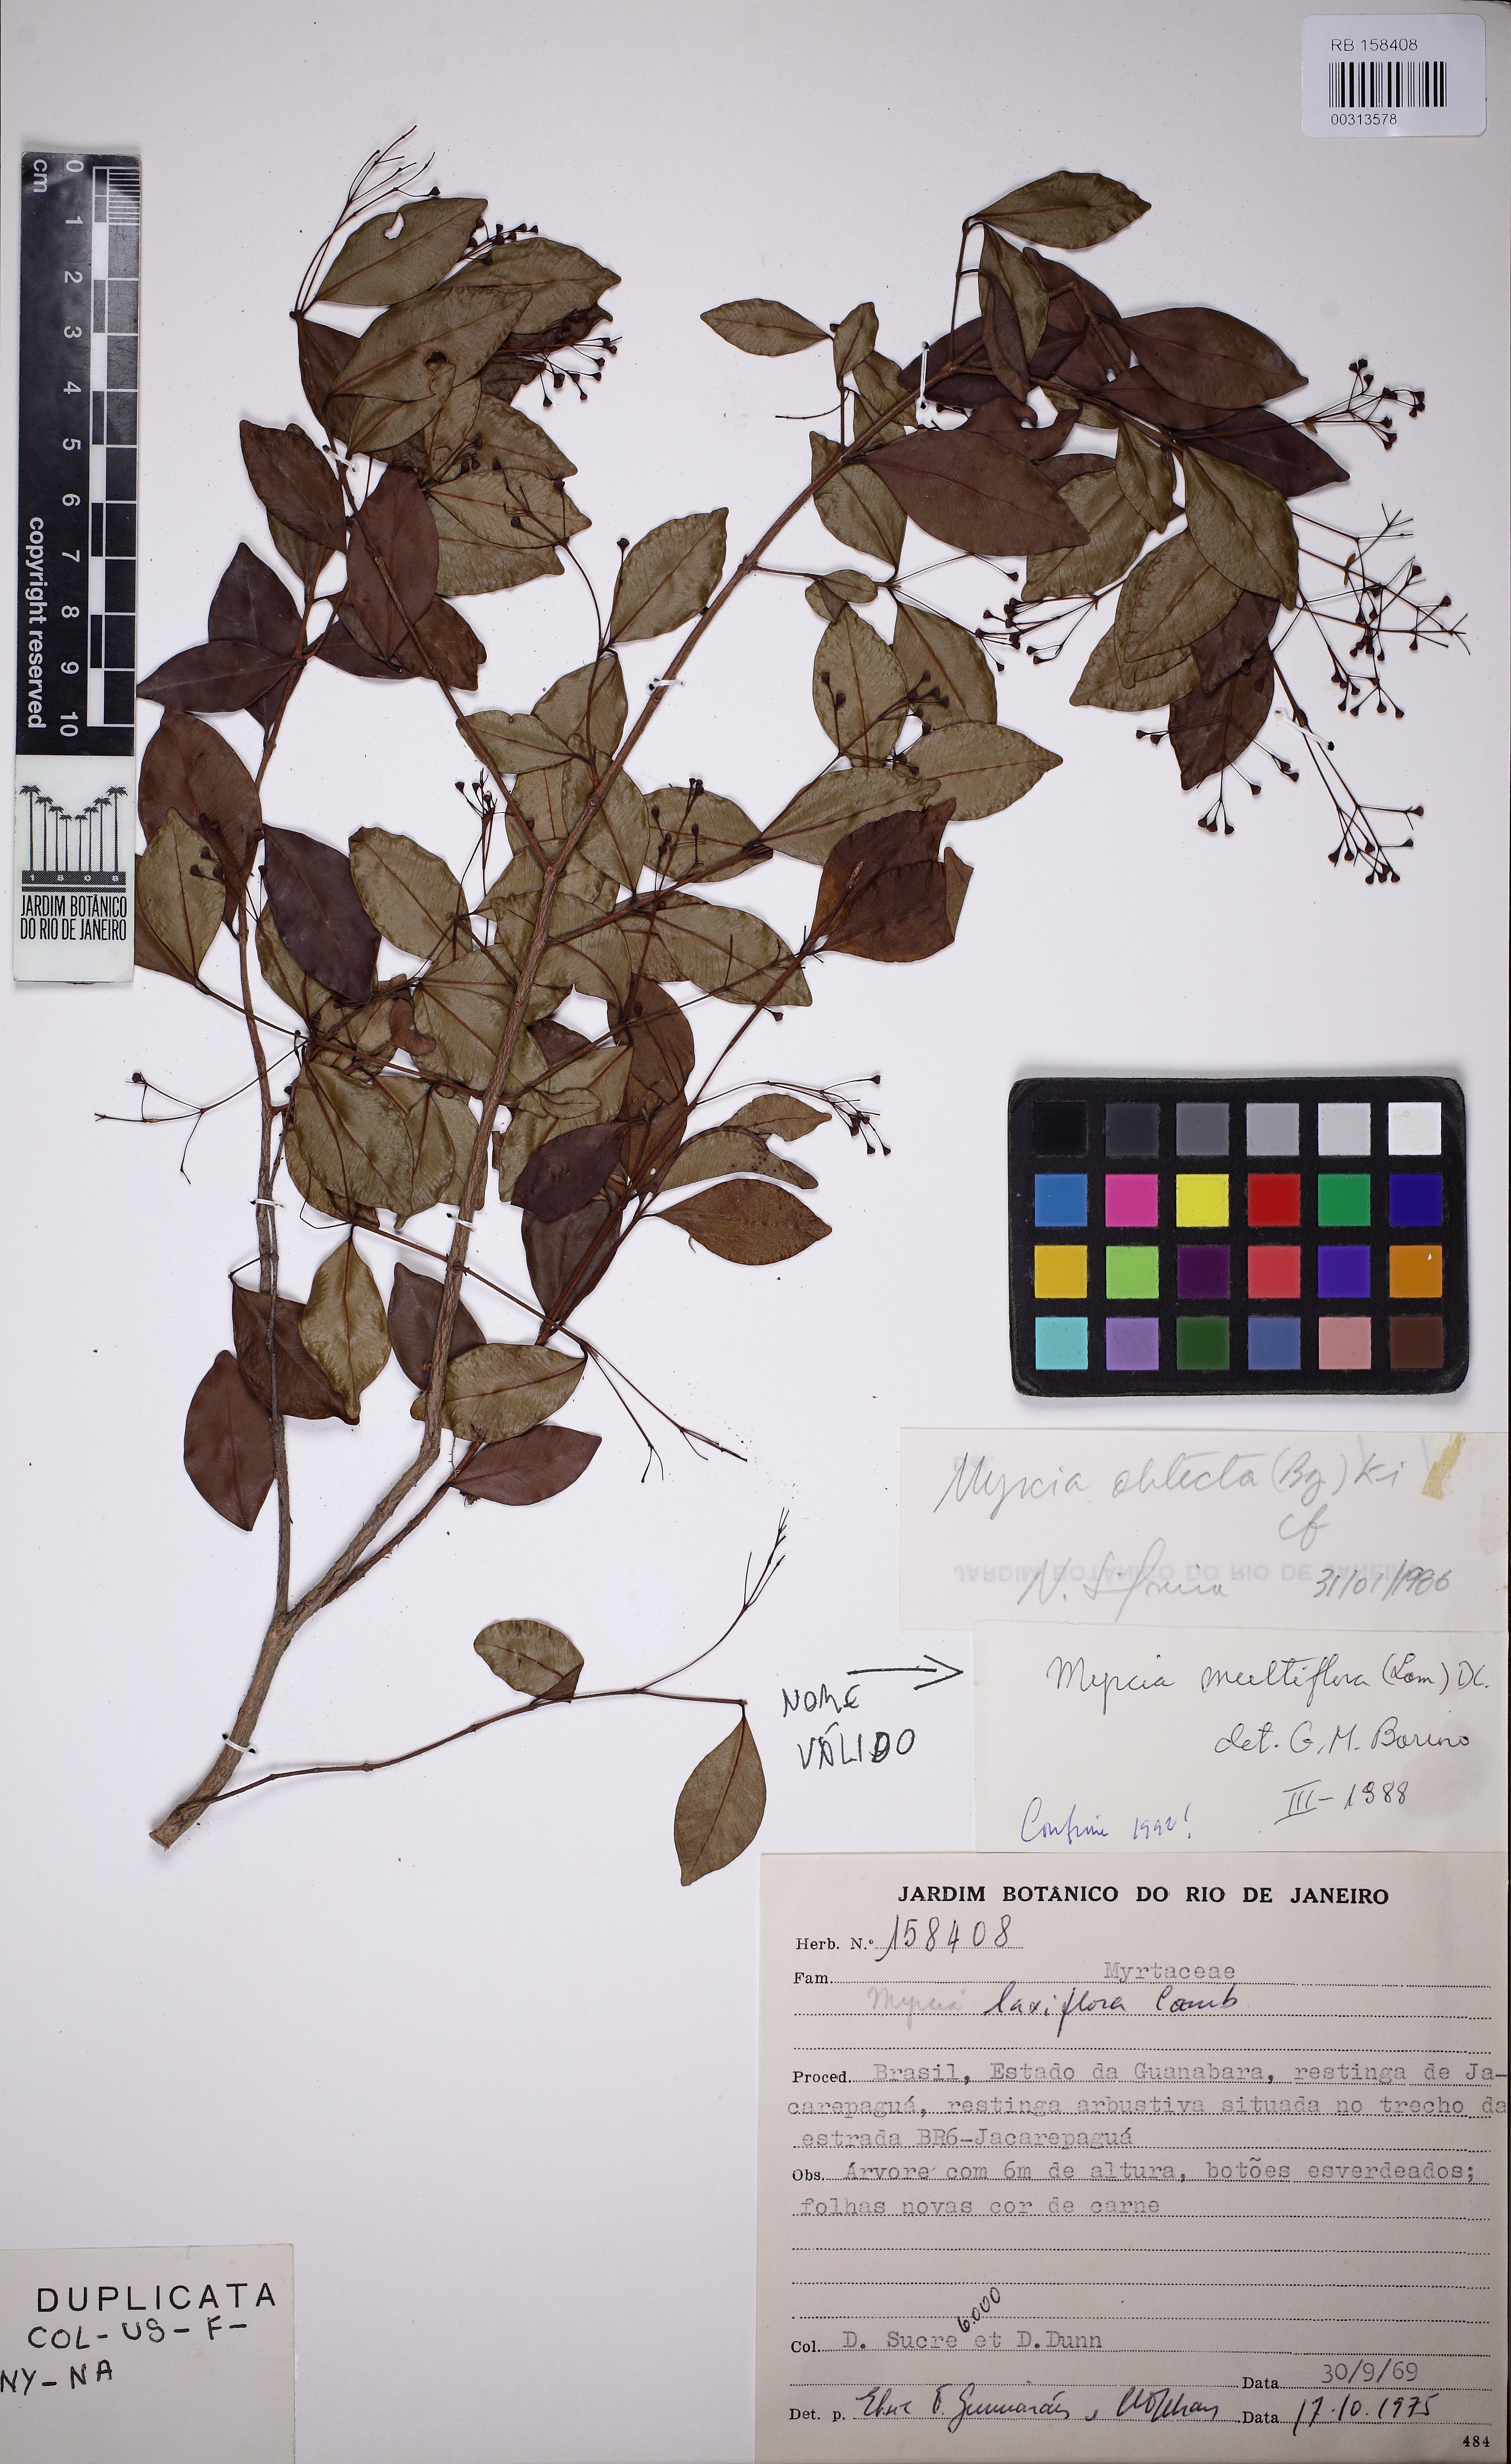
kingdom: Plantae
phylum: Tracheophyta
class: Magnoliopsida
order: Myrtales
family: Myrtaceae
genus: Myrcia
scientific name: Myrcia multiflora
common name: Pedra hume
